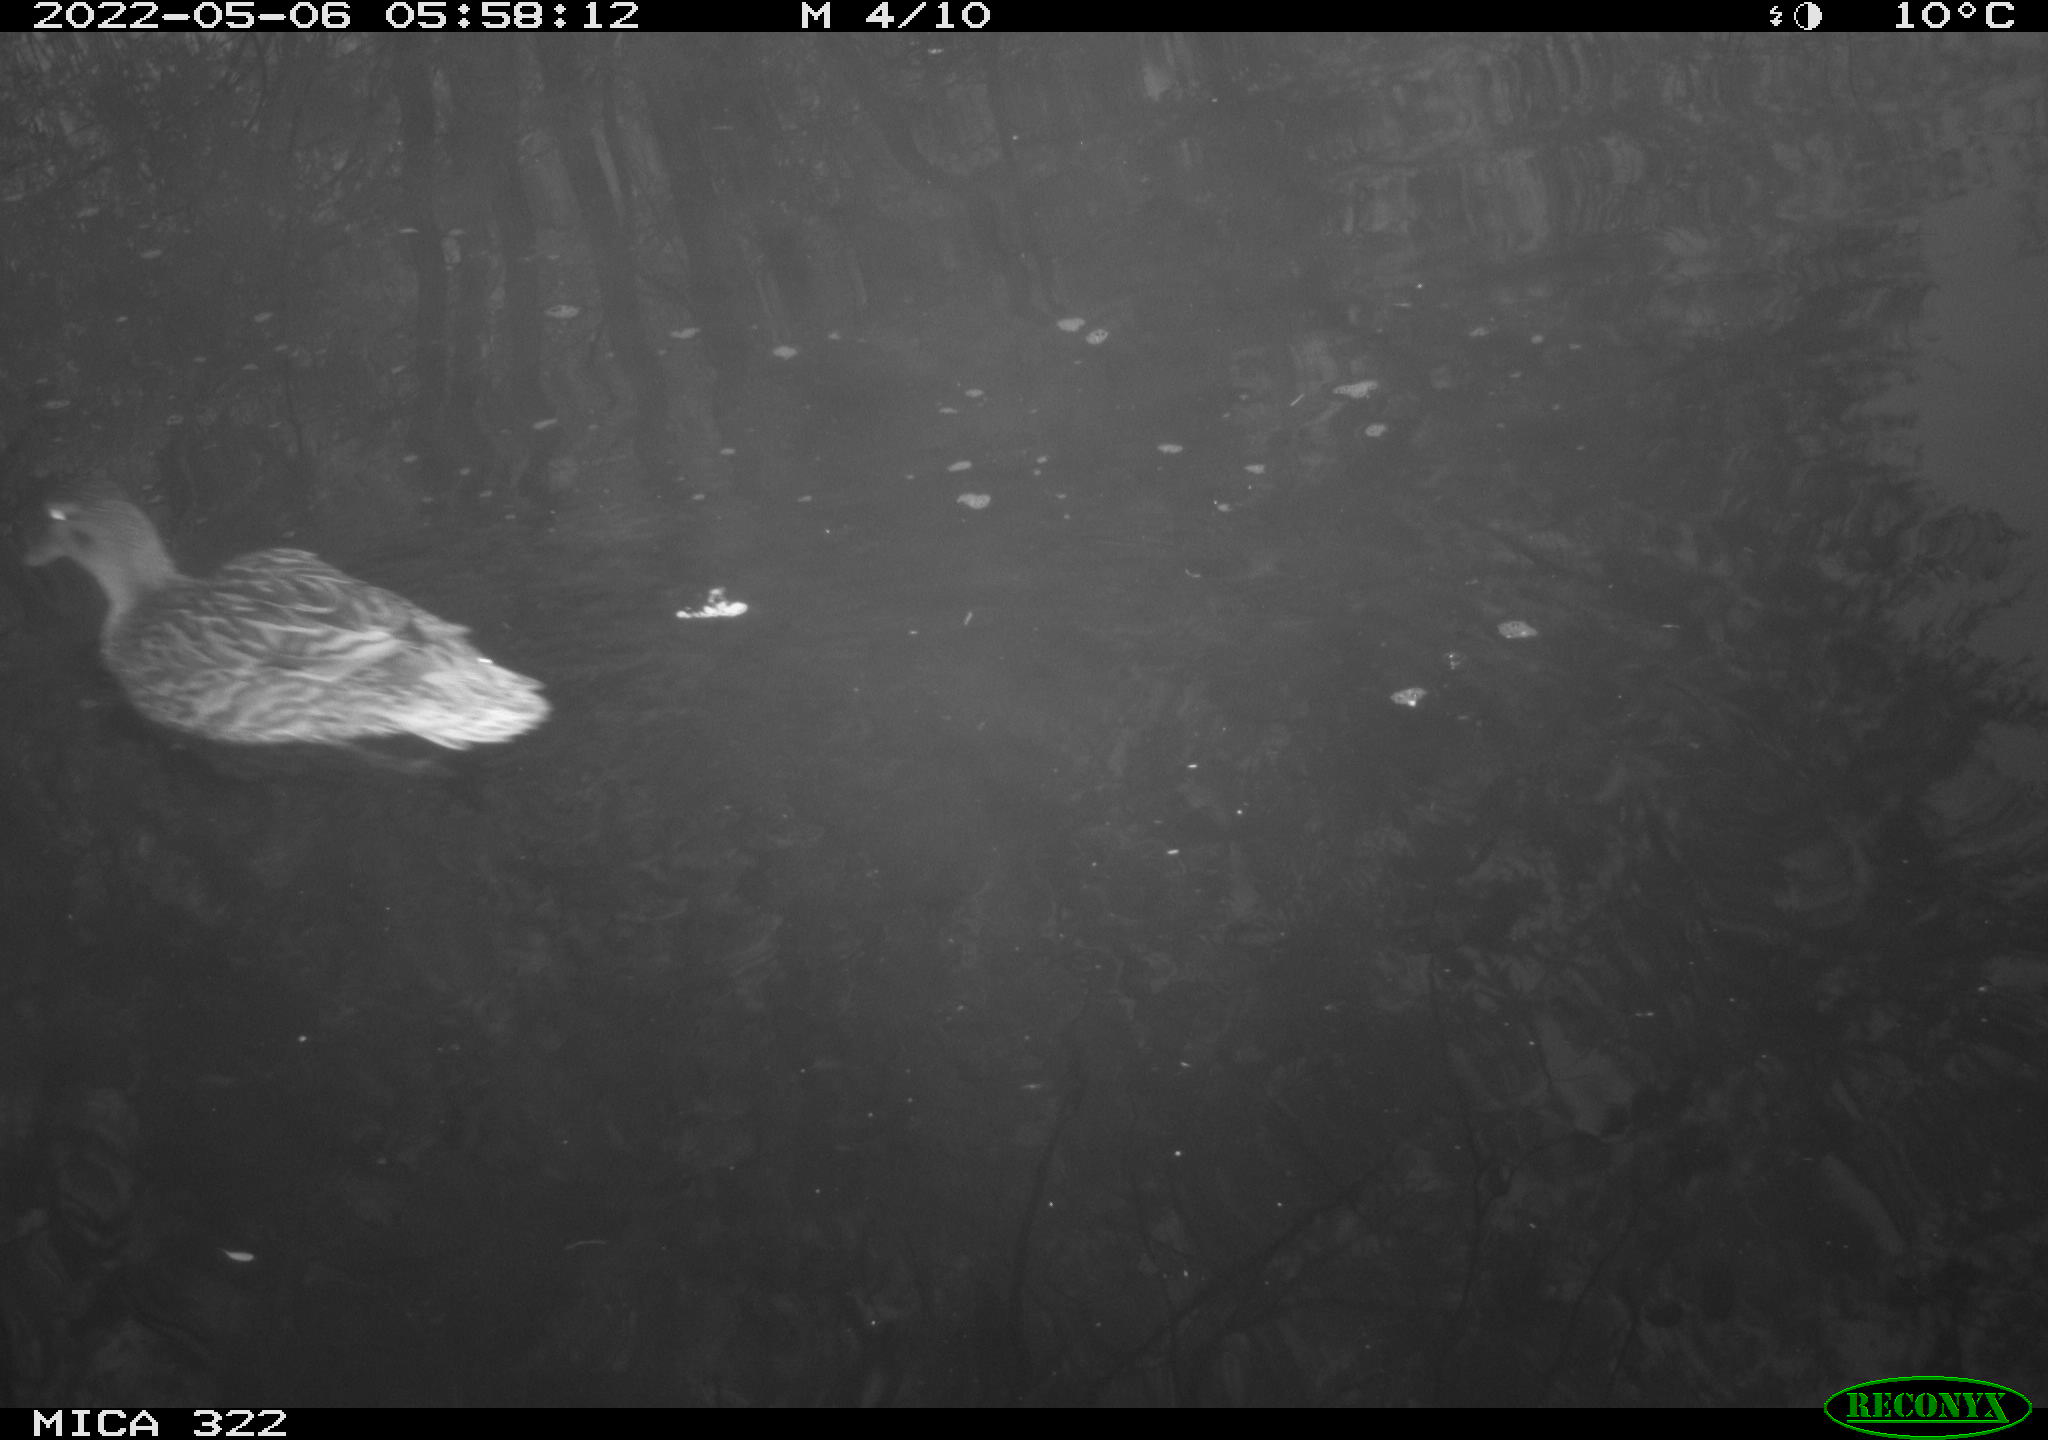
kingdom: Animalia
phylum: Chordata
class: Aves
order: Anseriformes
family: Anatidae
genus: Mareca
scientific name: Mareca strepera
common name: Gadwall
